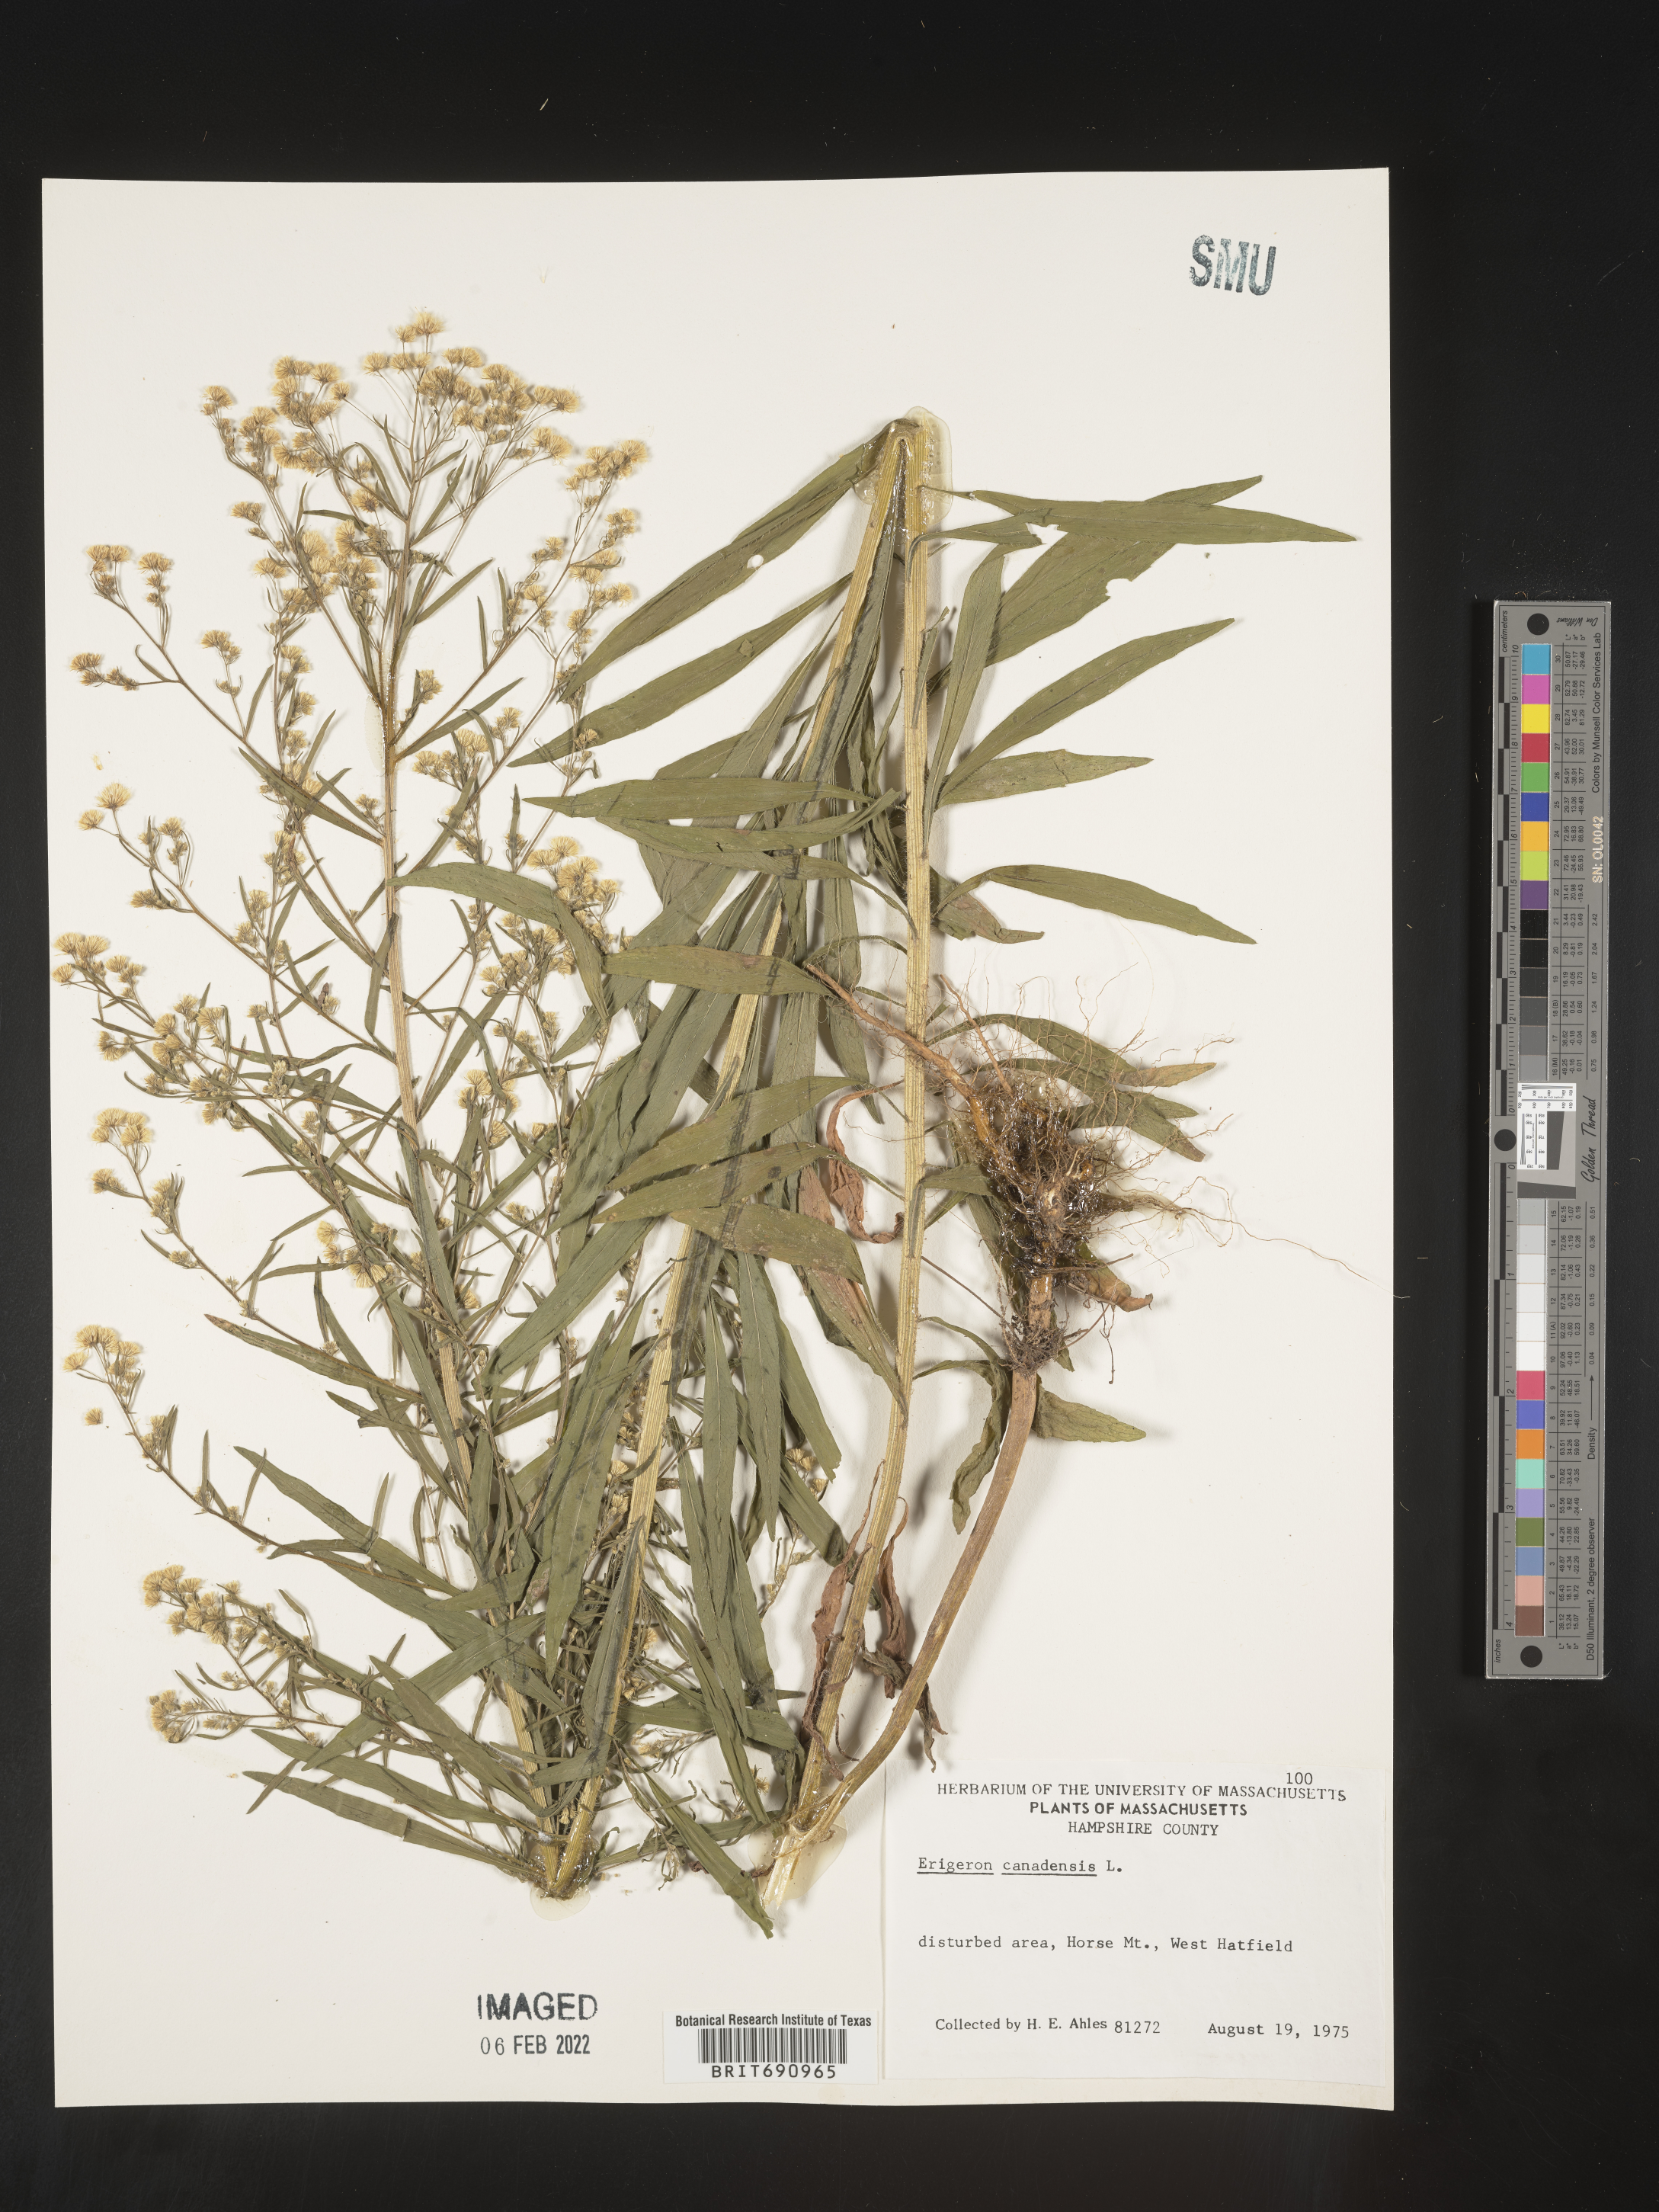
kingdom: Plantae
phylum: Tracheophyta
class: Magnoliopsida
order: Asterales
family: Asteraceae
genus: Erigeron
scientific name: Erigeron canadensis
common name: Canadian fleabane
